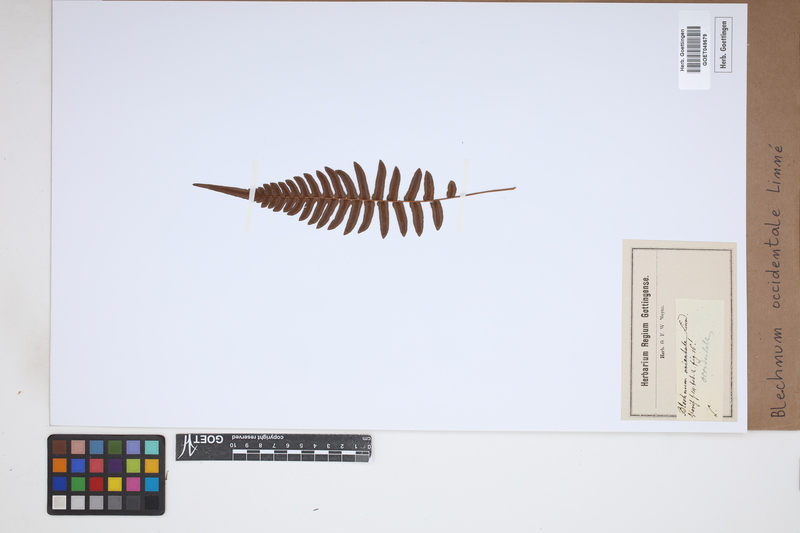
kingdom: Plantae
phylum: Tracheophyta
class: Polypodiopsida
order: Polypodiales
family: Blechnaceae
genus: Blechnum
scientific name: Blechnum occidentale
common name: Hammock fern
